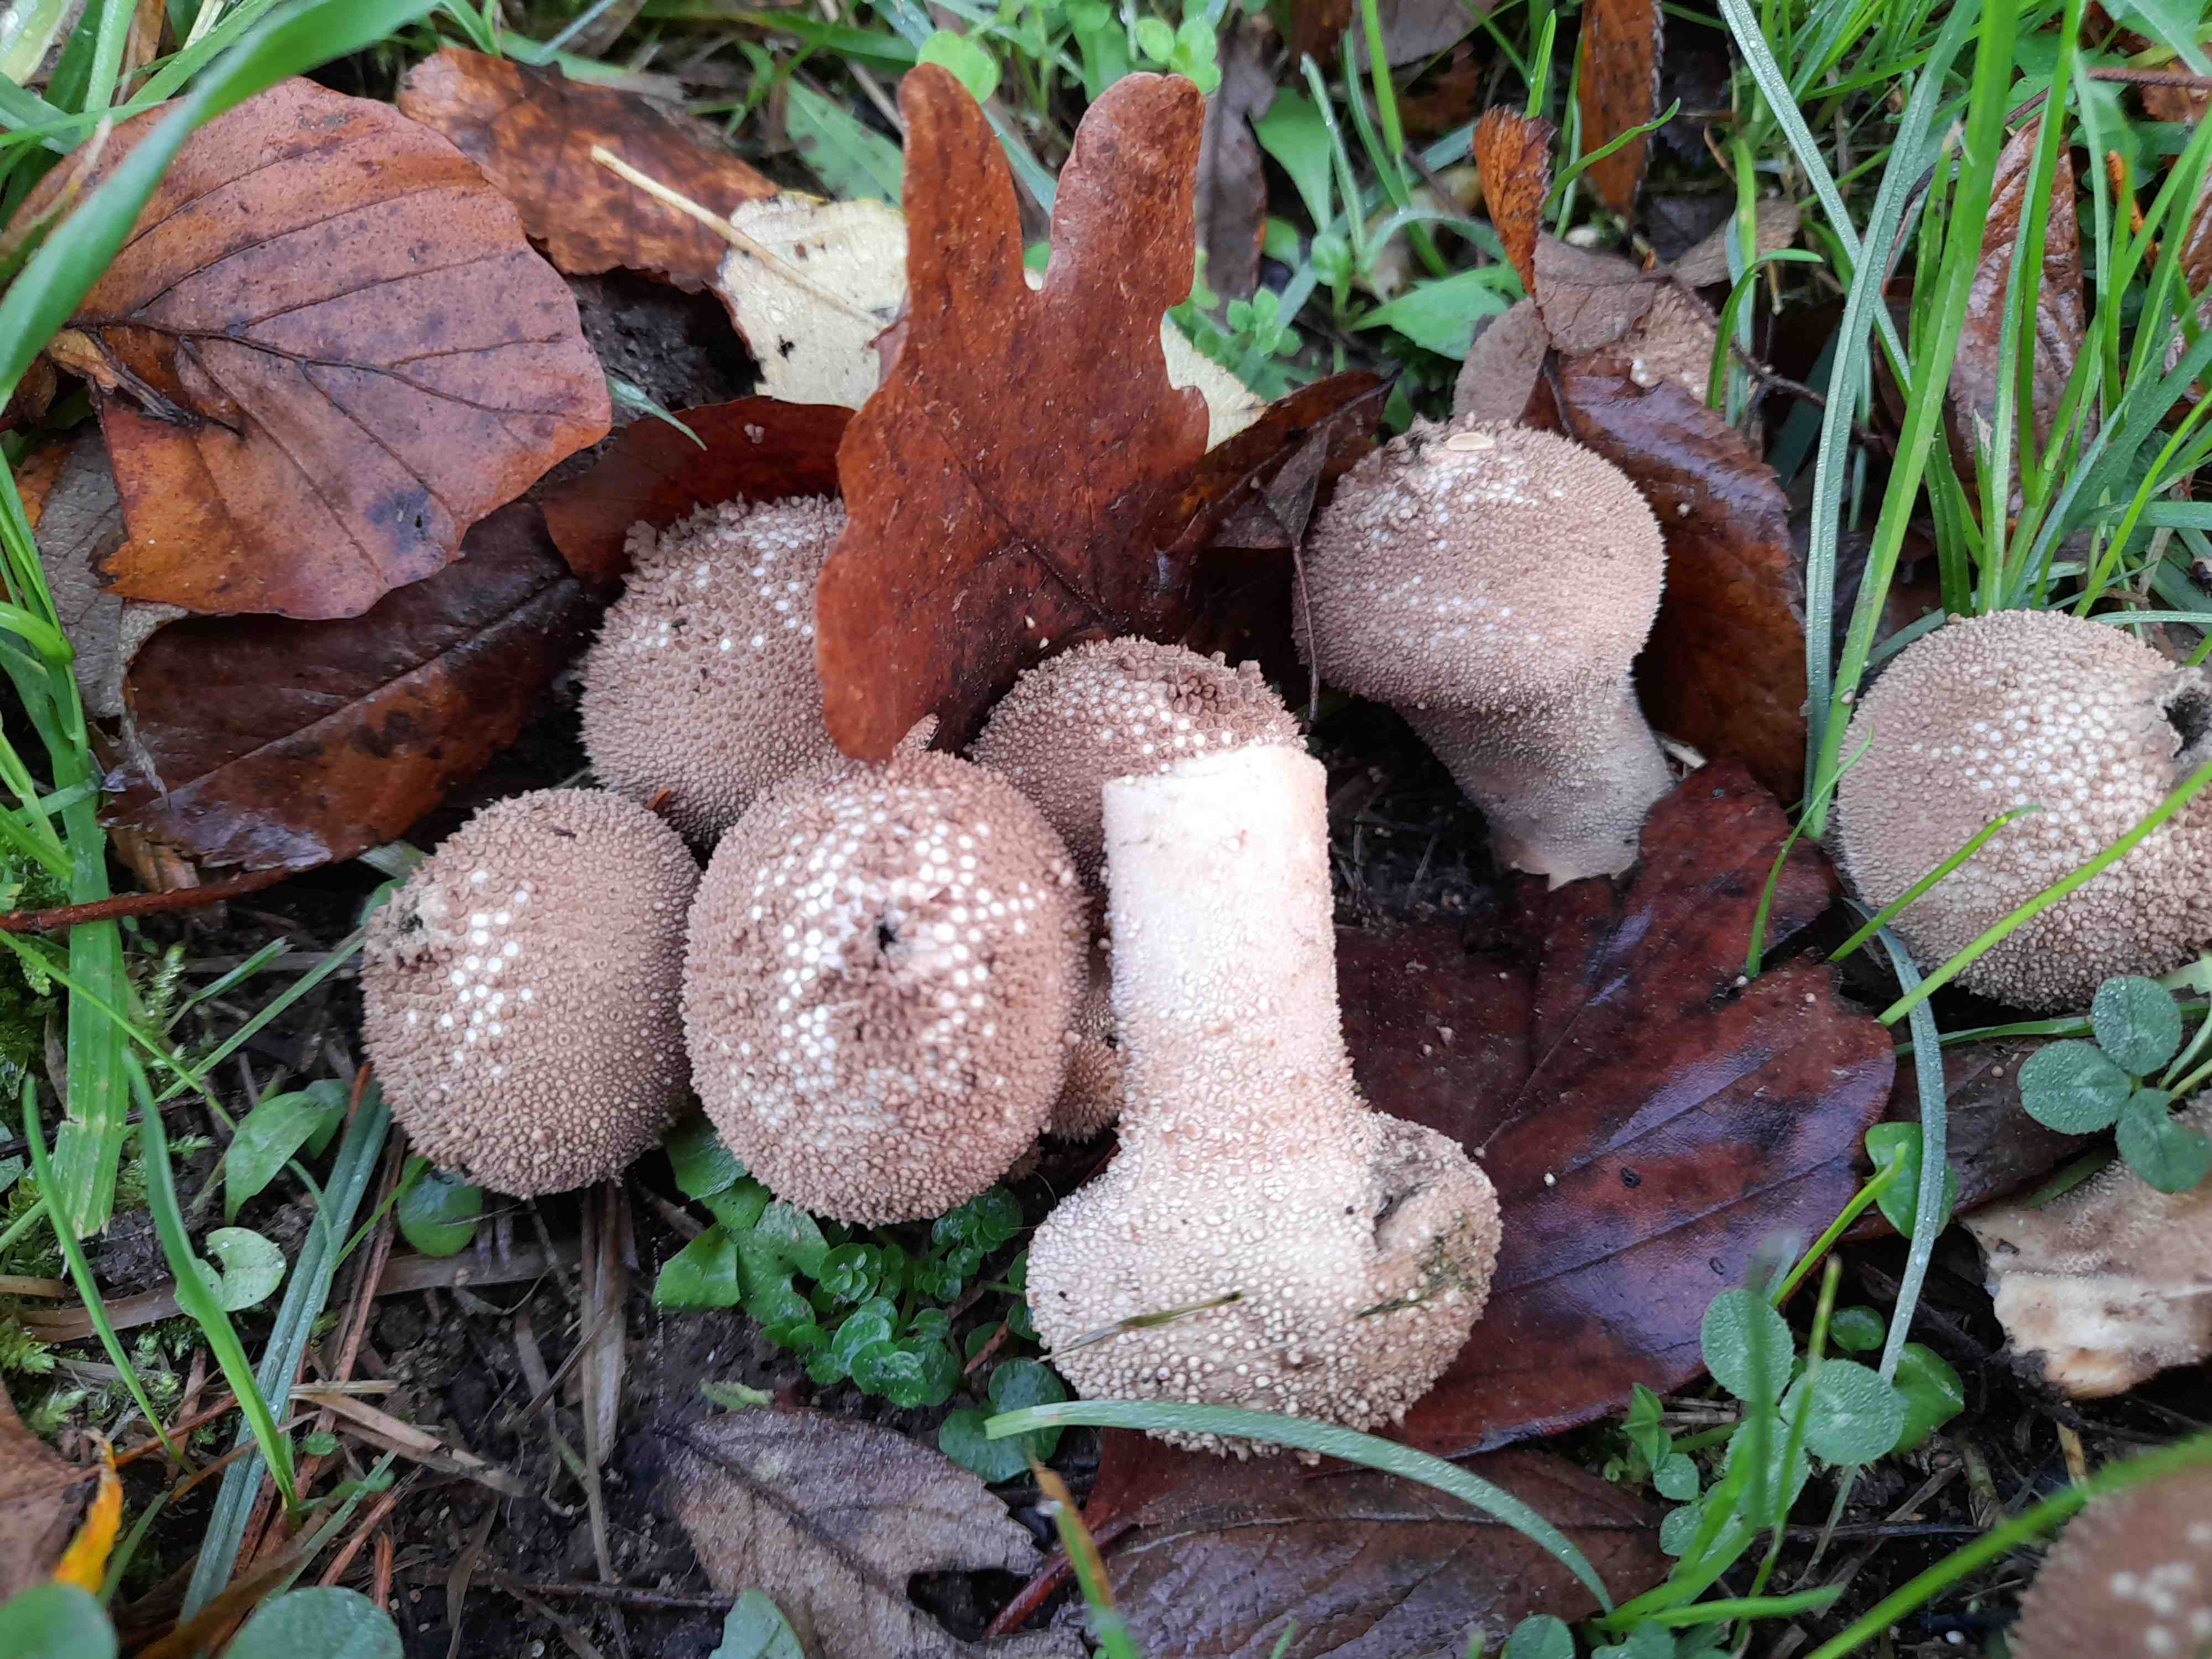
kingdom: Fungi
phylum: Basidiomycota
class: Agaricomycetes
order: Agaricales
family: Lycoperdaceae
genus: Lycoperdon
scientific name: Lycoperdon nigrescens
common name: sortagtig støvbold
